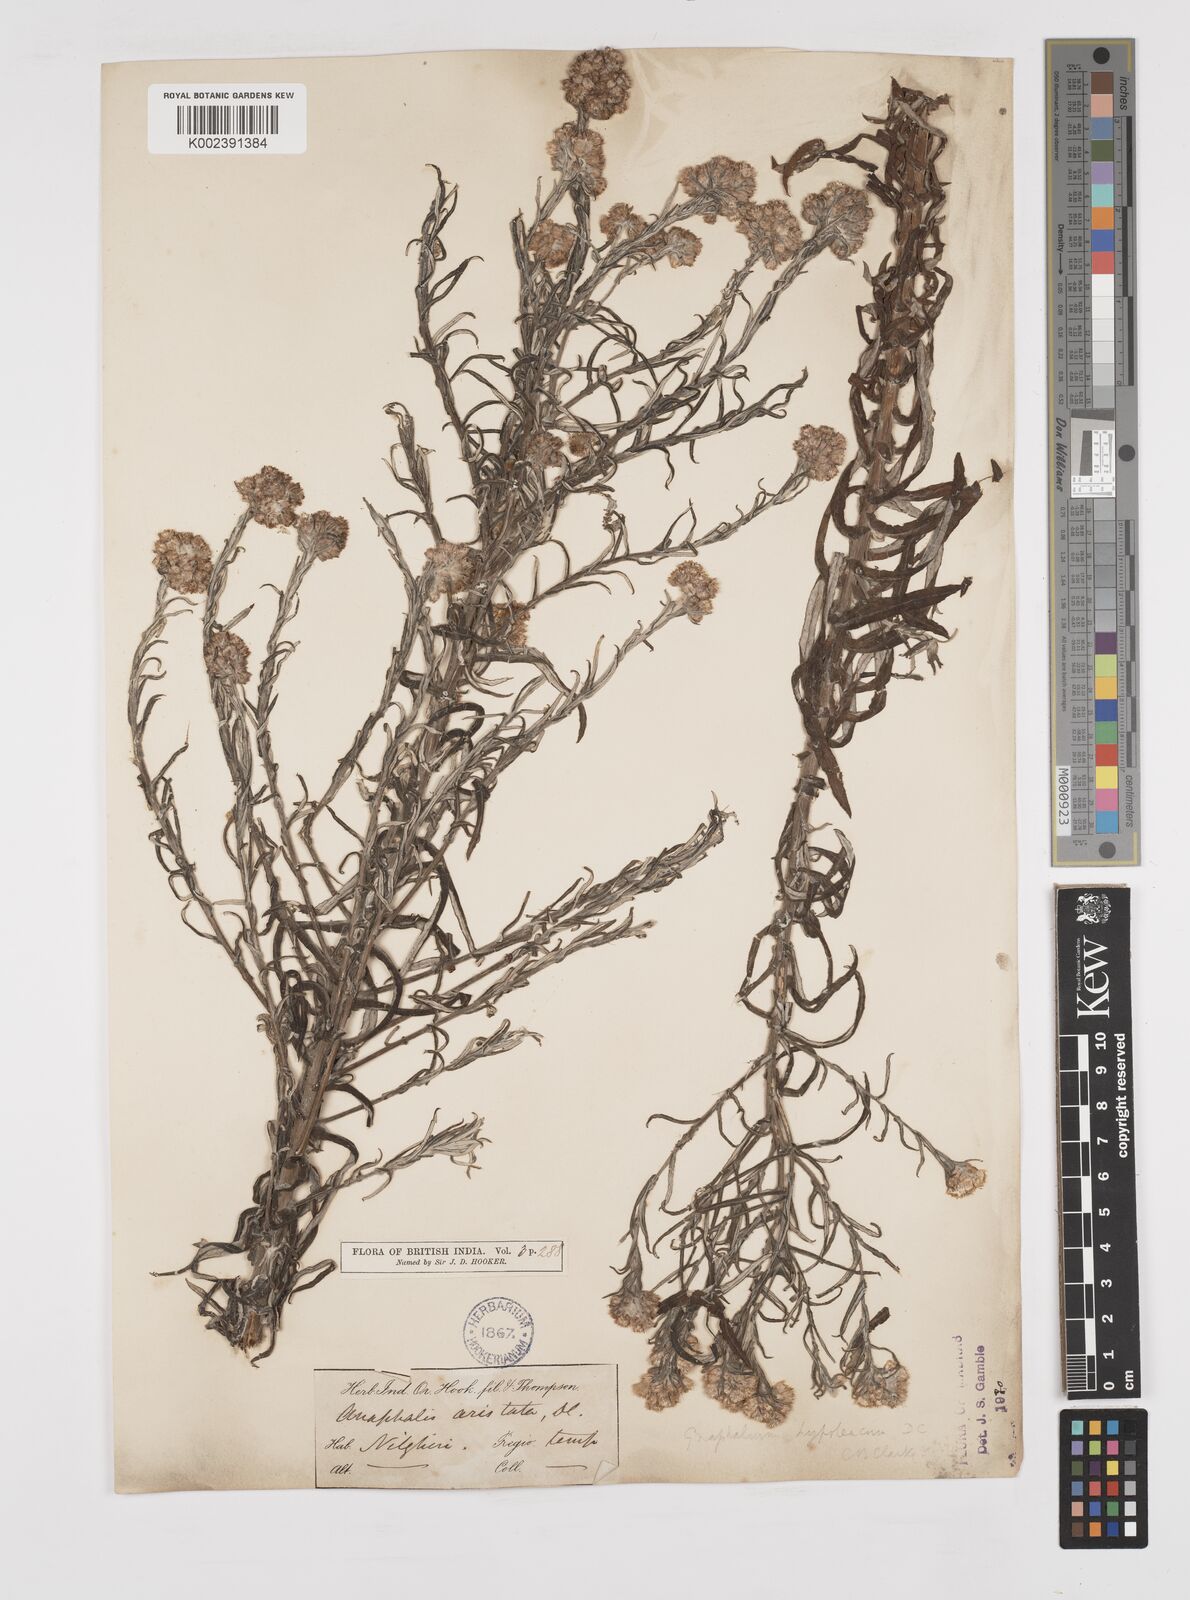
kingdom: Plantae
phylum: Tracheophyta
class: Magnoliopsida
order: Asterales
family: Asteraceae
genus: Pseudognaphalium
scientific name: Pseudognaphalium hypoleucum
